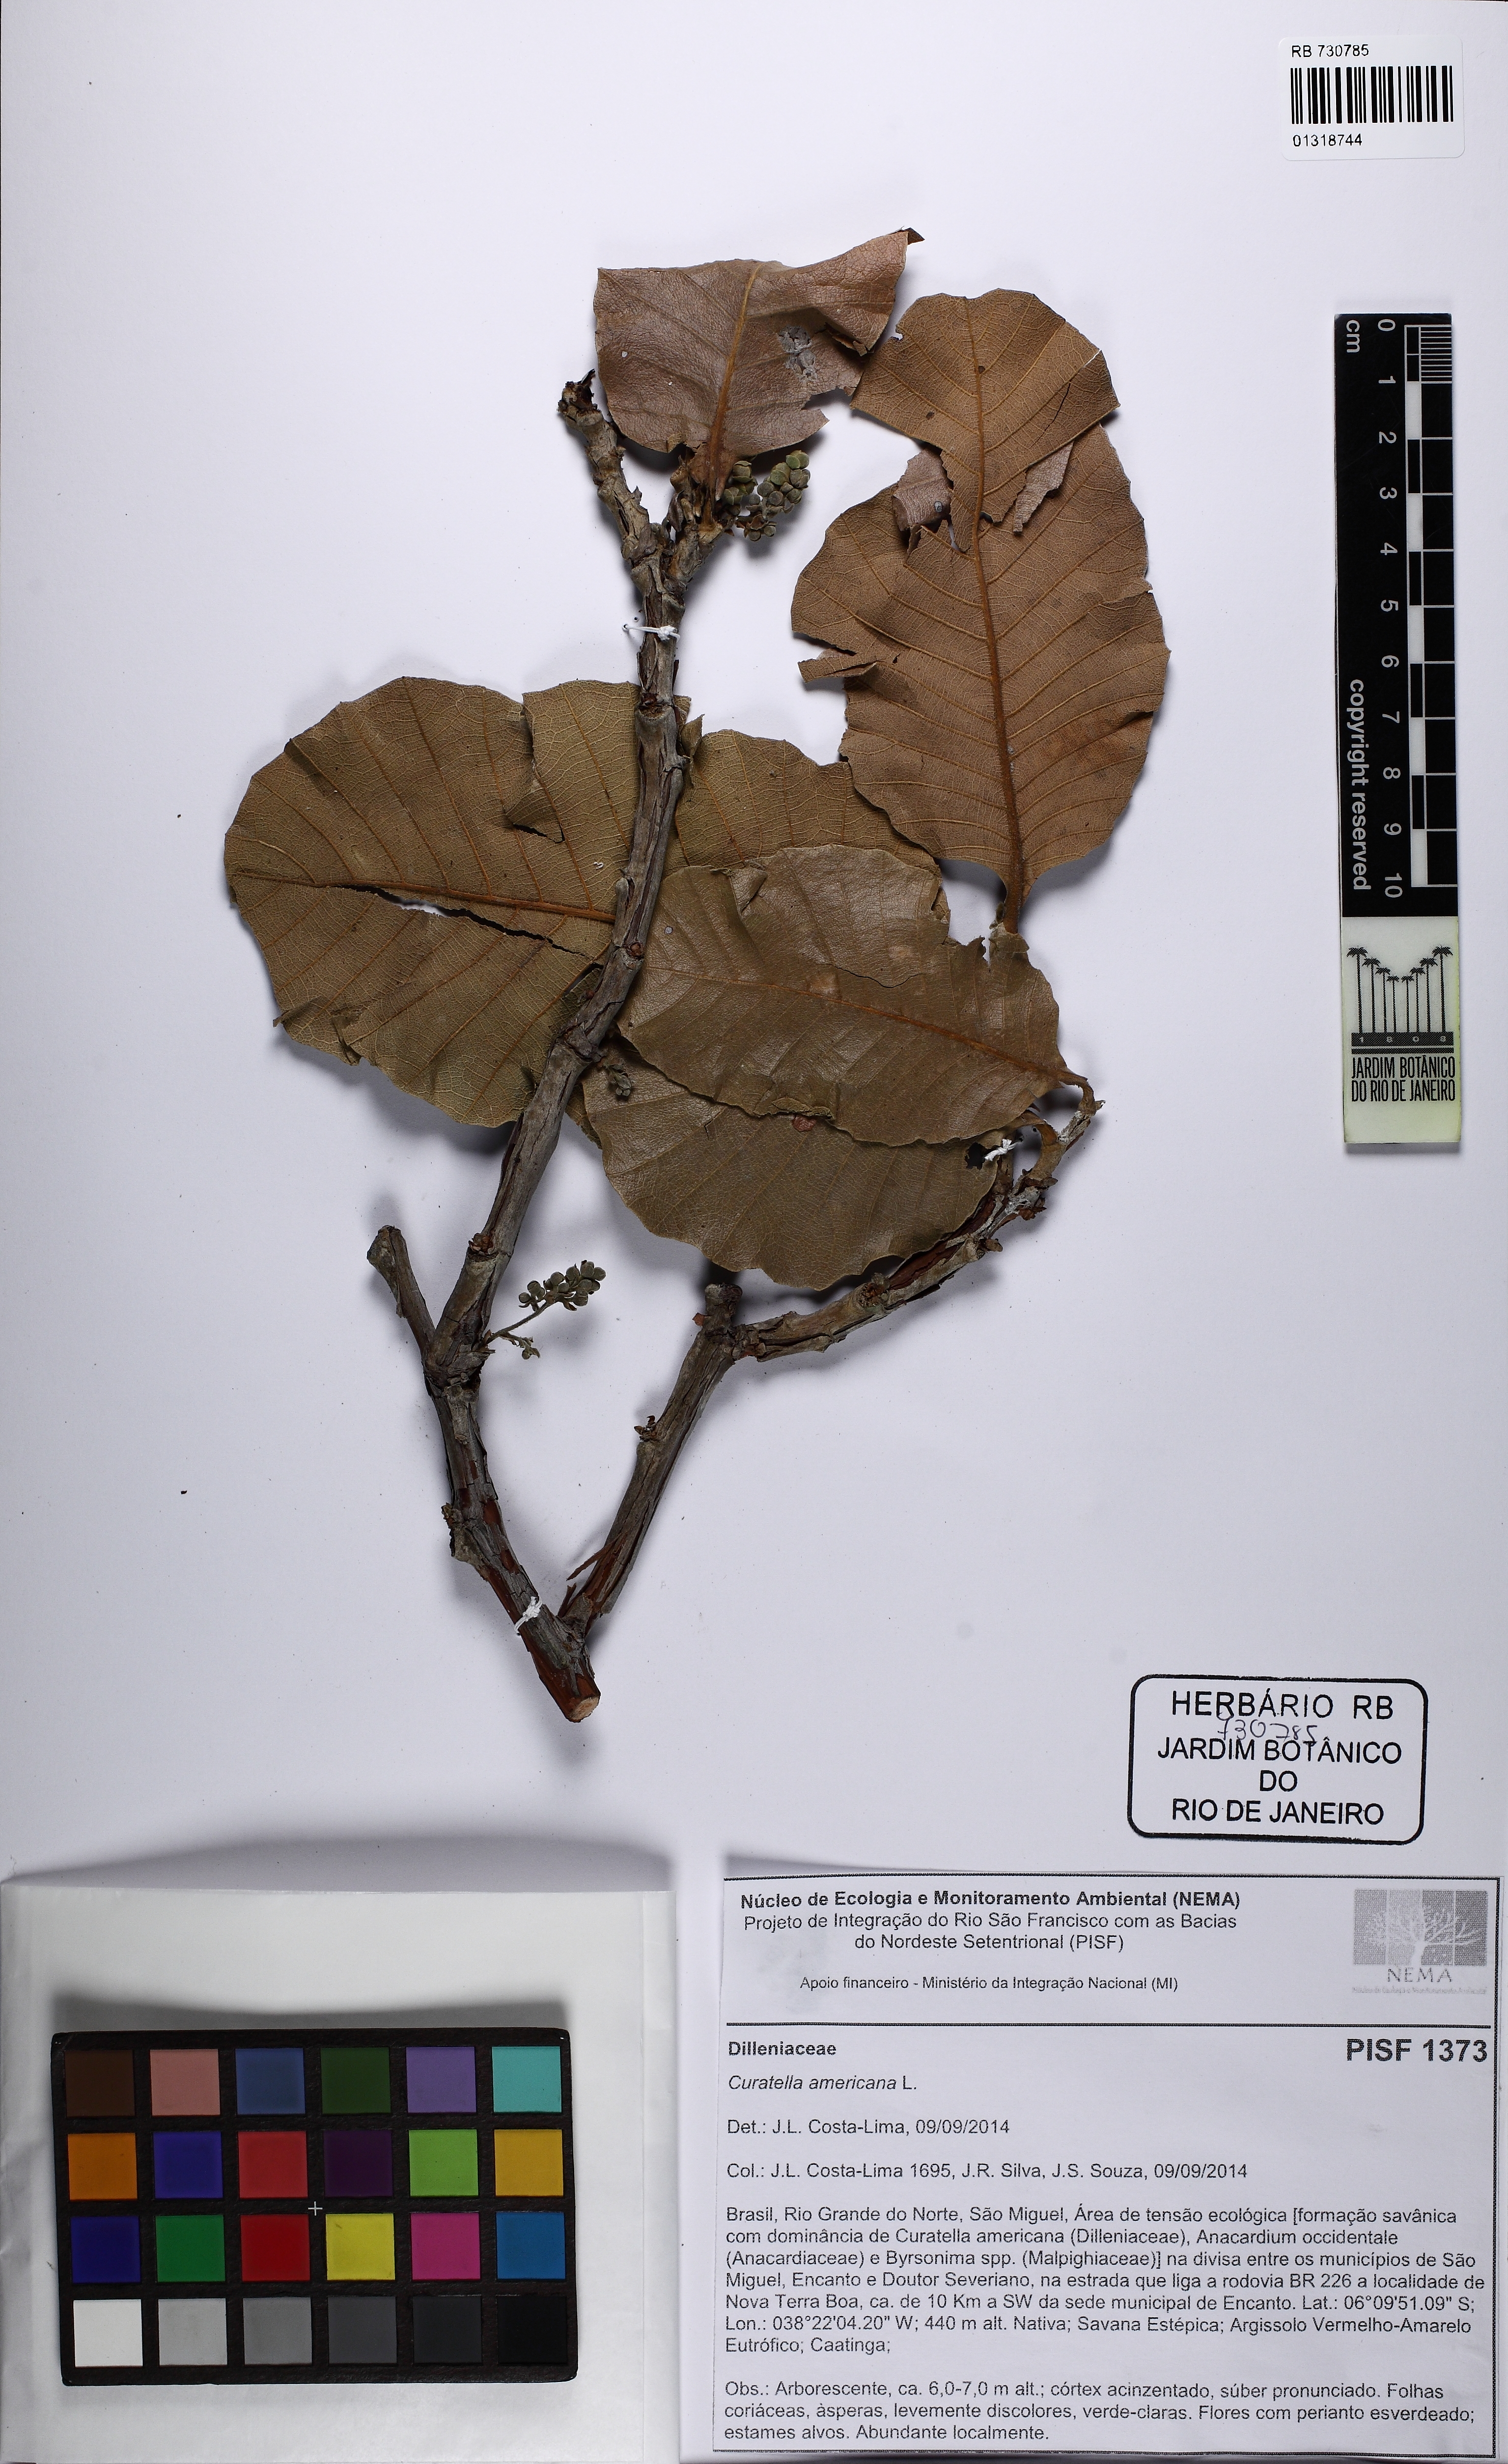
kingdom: Plantae
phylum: Tracheophyta
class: Magnoliopsida
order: Dilleniales
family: Dilleniaceae
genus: Curatella
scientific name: Curatella americana
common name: Sandpaper tree
